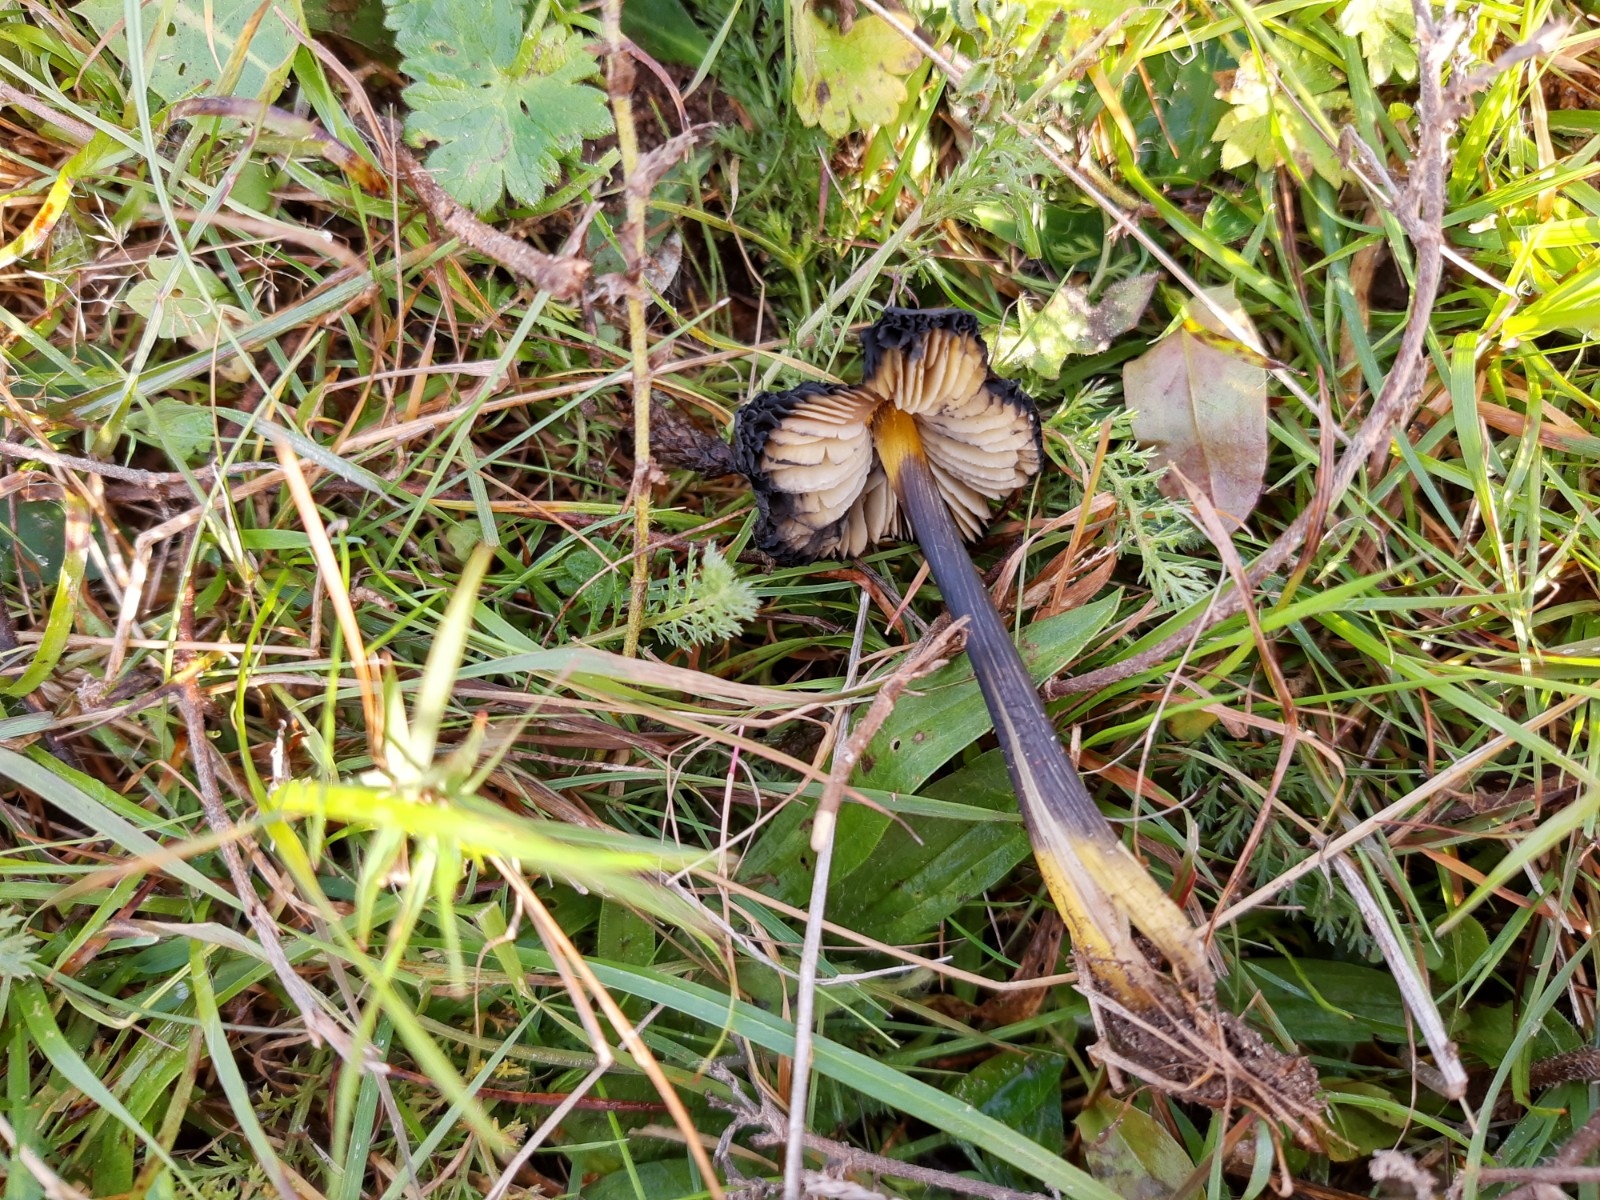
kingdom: Fungi
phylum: Basidiomycota
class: Agaricomycetes
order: Agaricales
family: Hygrophoraceae
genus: Hygrocybe
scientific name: Hygrocybe conica
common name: kegle-vokshat
